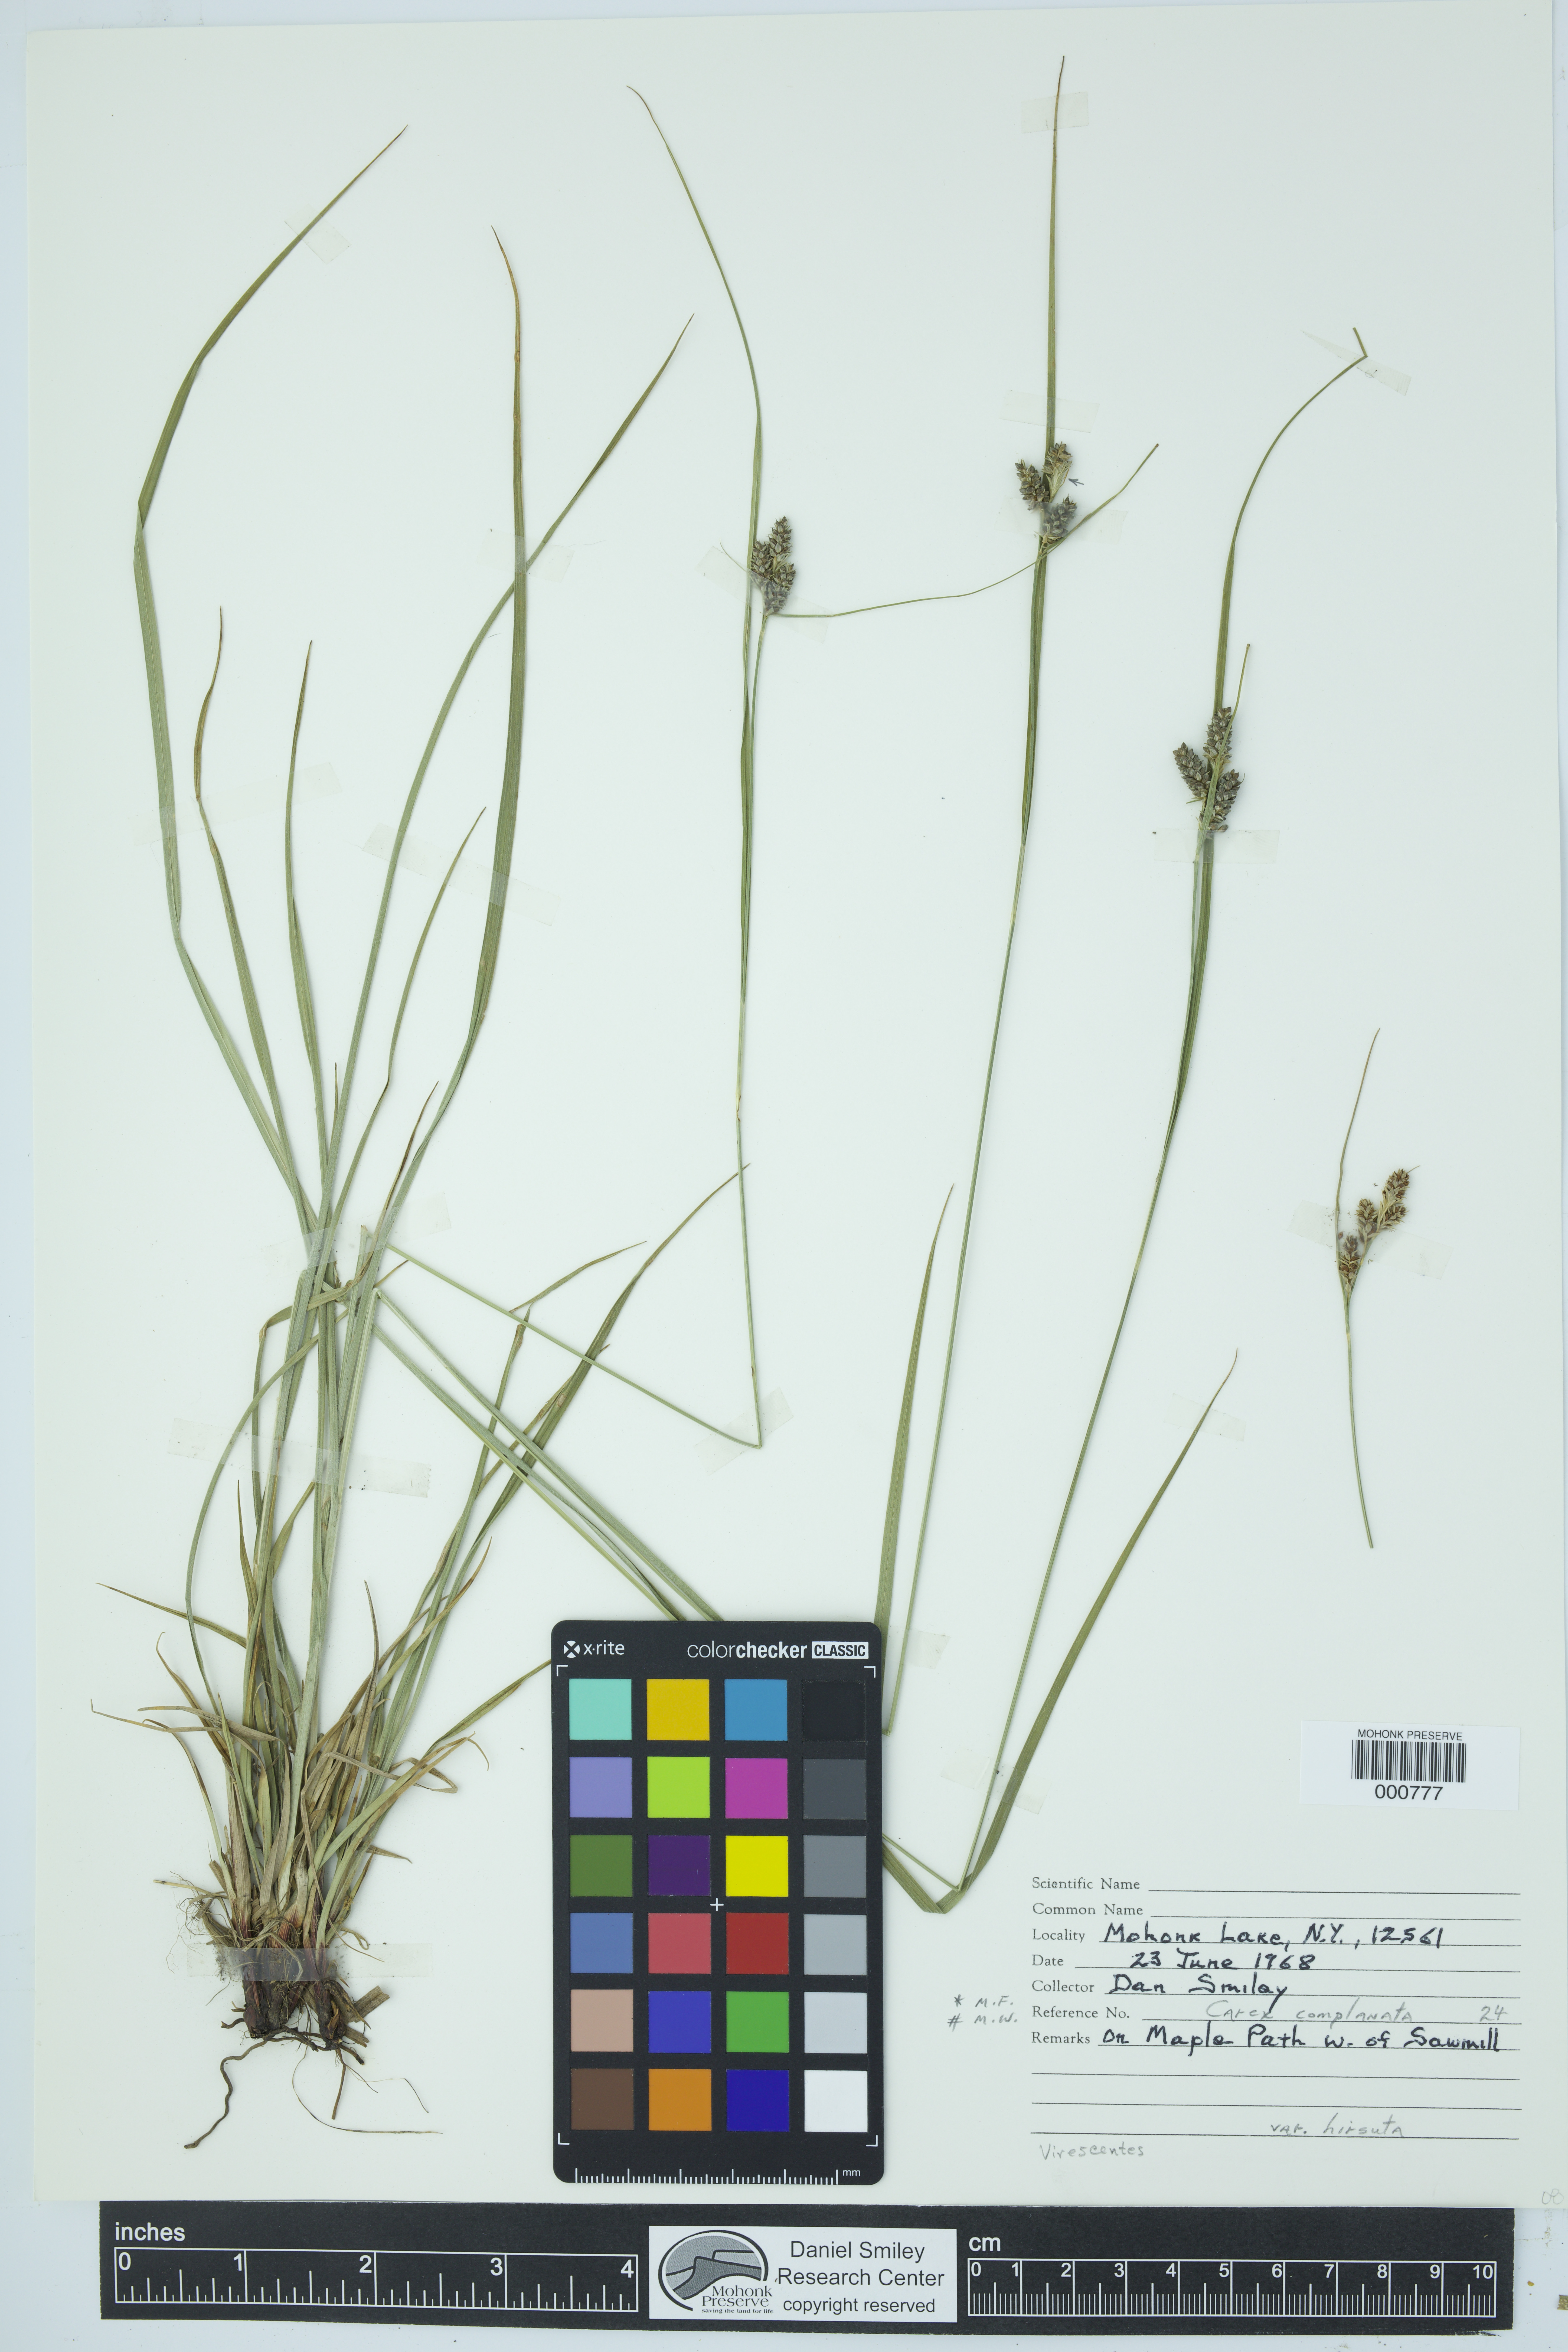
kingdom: Plantae
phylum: Tracheophyta
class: Liliopsida
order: Poales
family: Cyperaceae
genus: Carex
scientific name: Carex complanata
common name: Hirsute sedge
